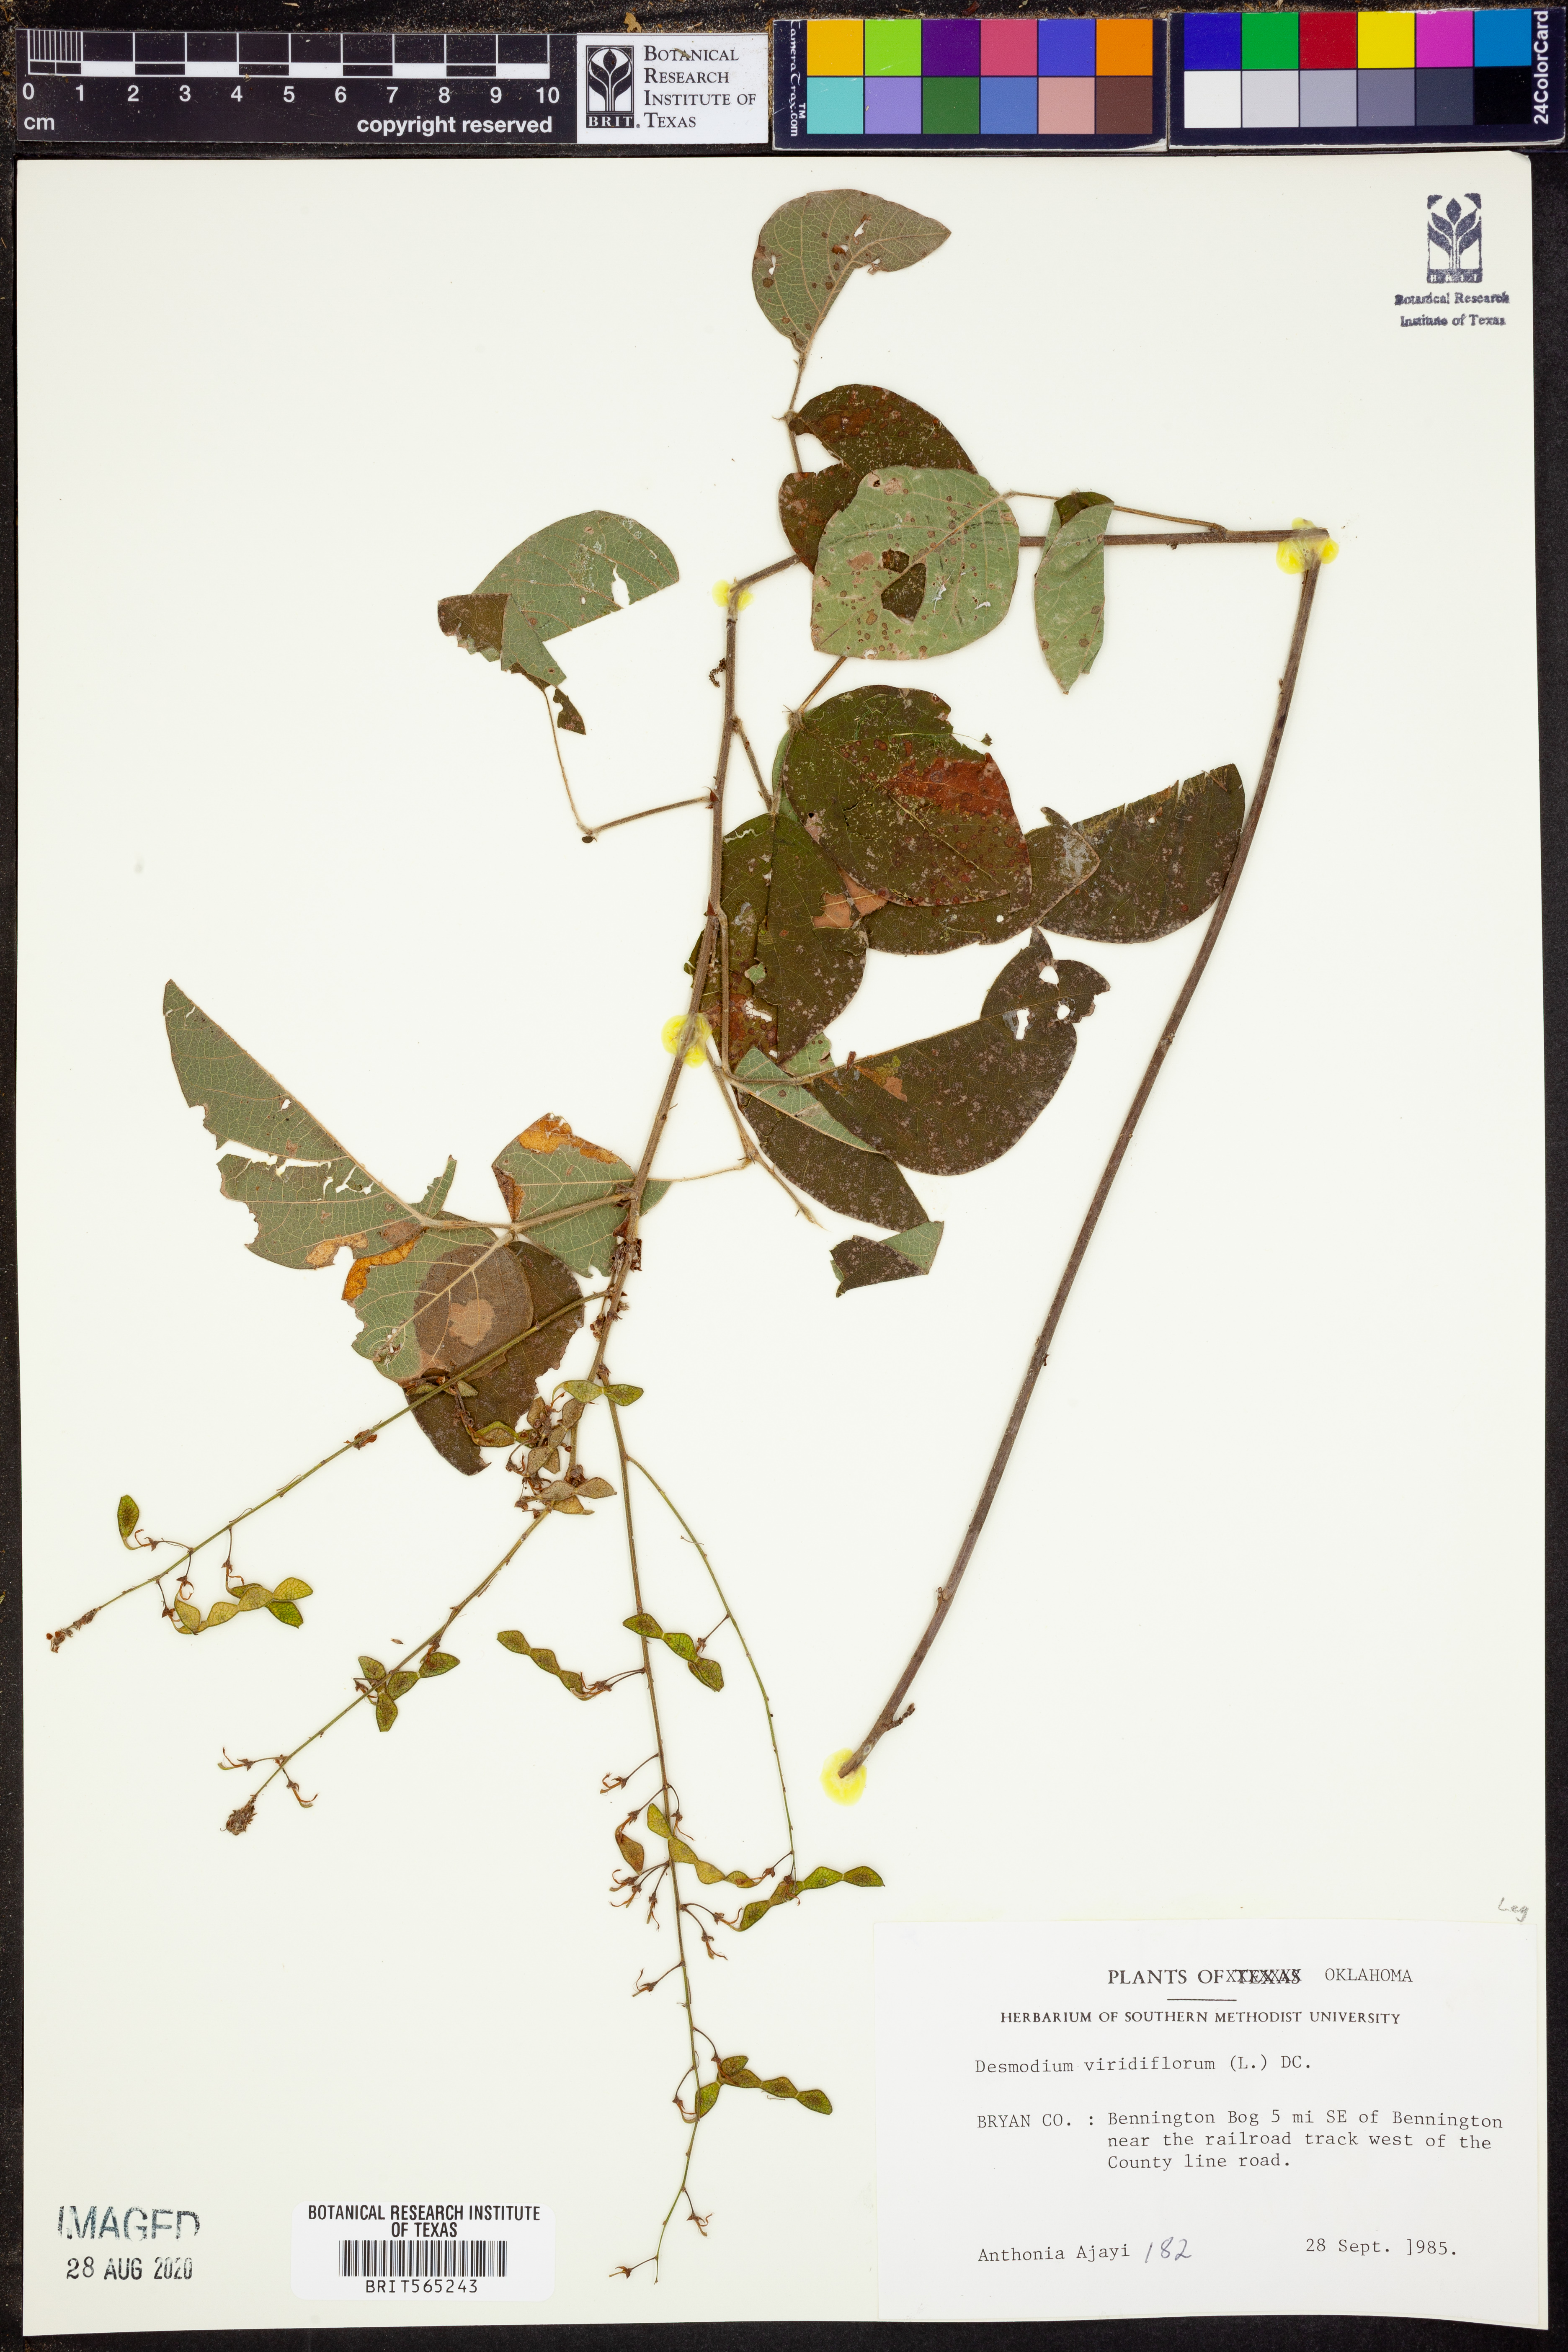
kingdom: Plantae
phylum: Tracheophyta
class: Magnoliopsida
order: Fabales
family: Fabaceae
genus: Desmodium
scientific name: Desmodium viridiflorum
